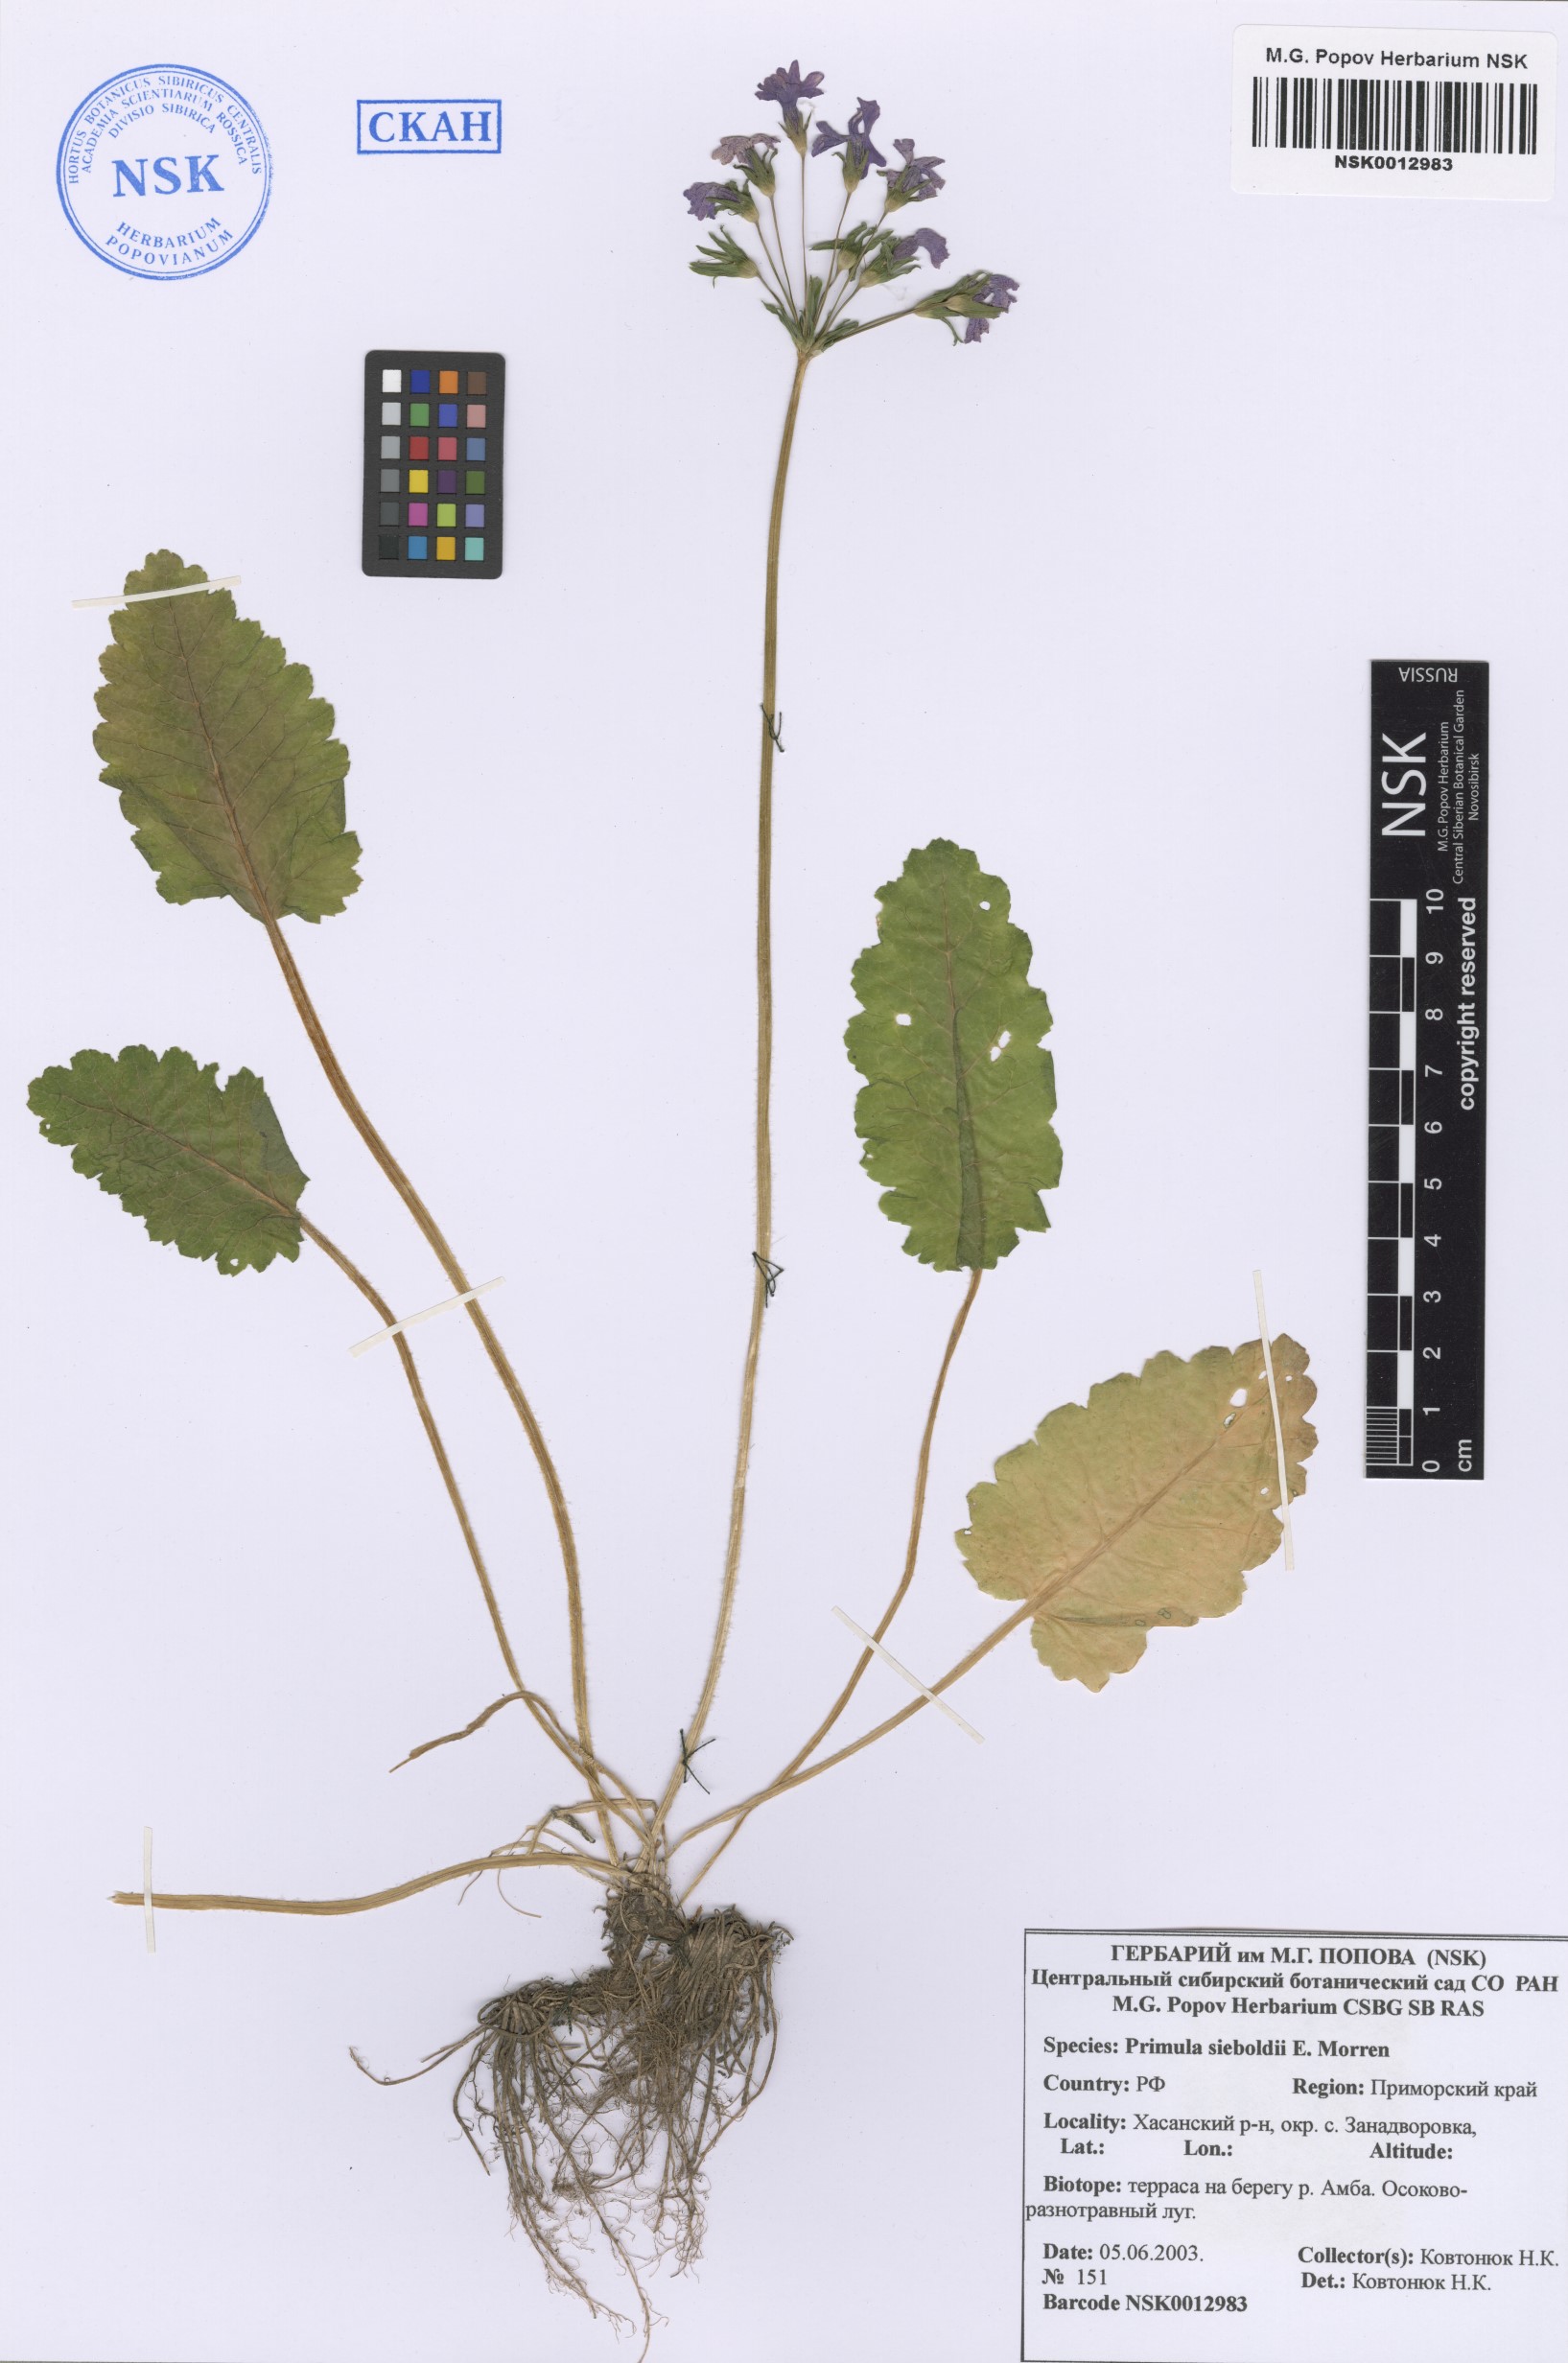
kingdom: Plantae
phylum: Tracheophyta
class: Magnoliopsida
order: Ericales
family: Primulaceae
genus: Primula
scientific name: Primula sieboldii
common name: Japanese primrose
